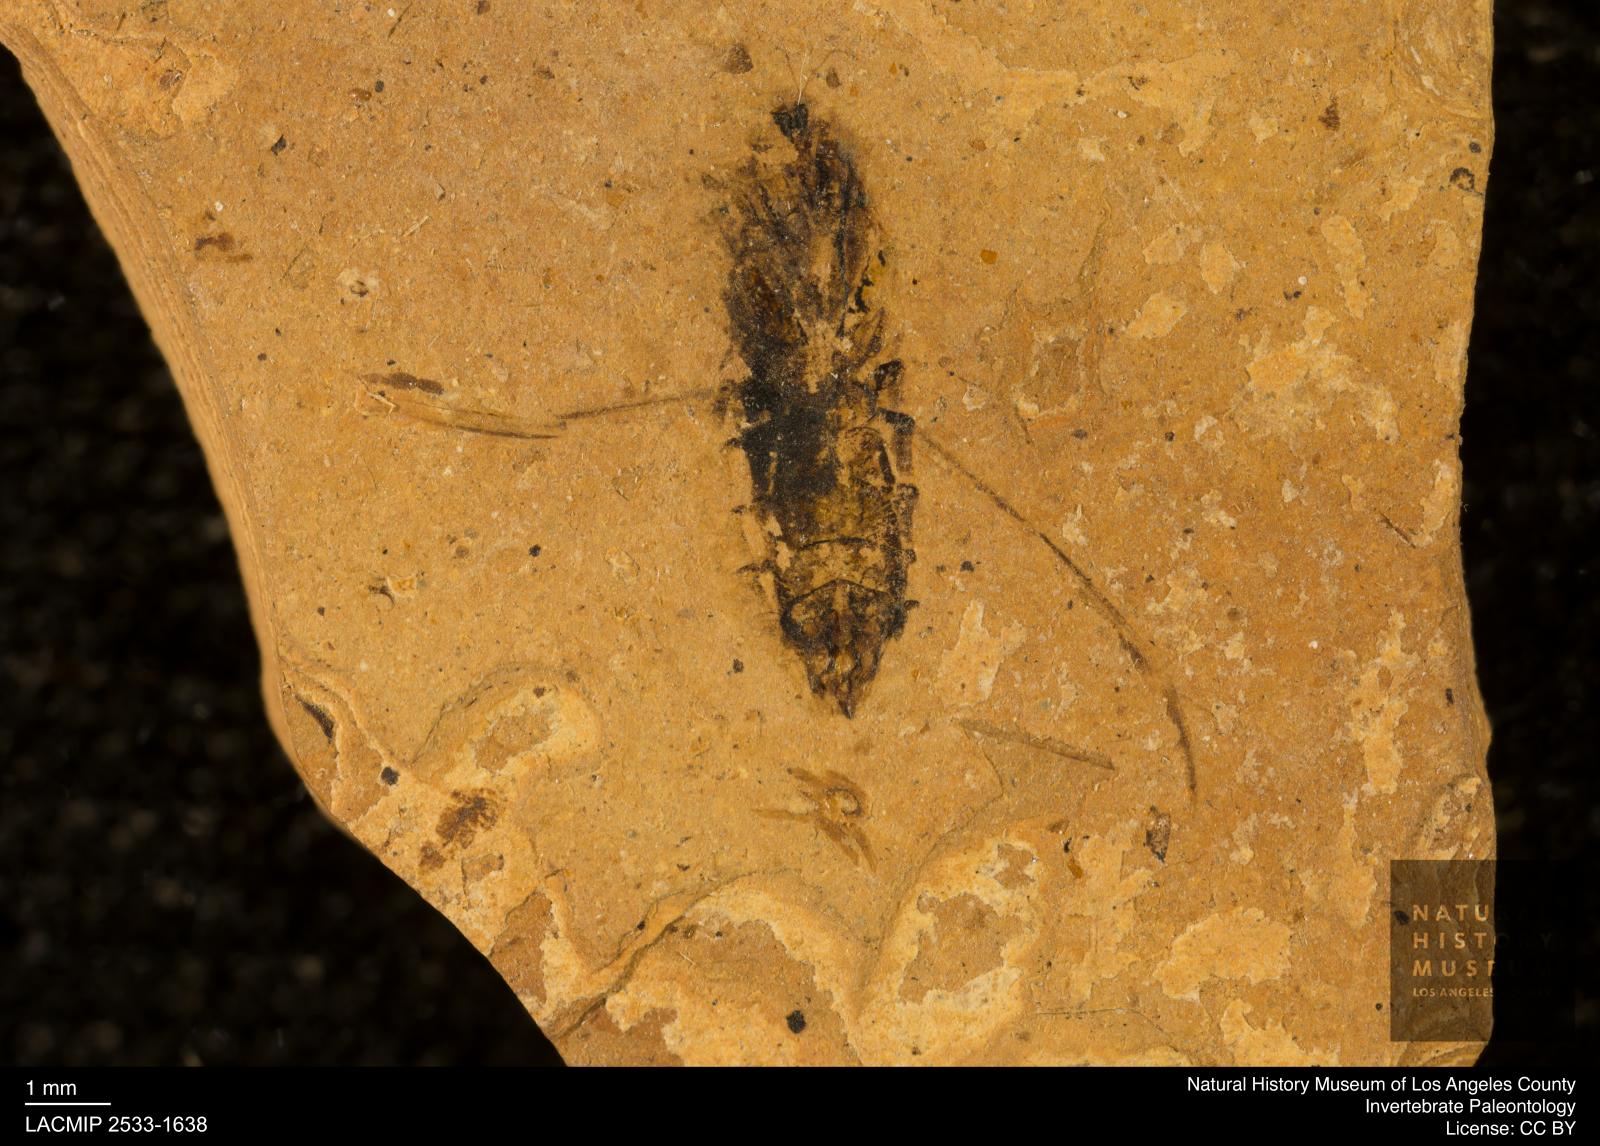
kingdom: Animalia
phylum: Arthropoda
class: Insecta
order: Hemiptera
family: Notonectidae
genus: Notonecta
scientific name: Notonecta
